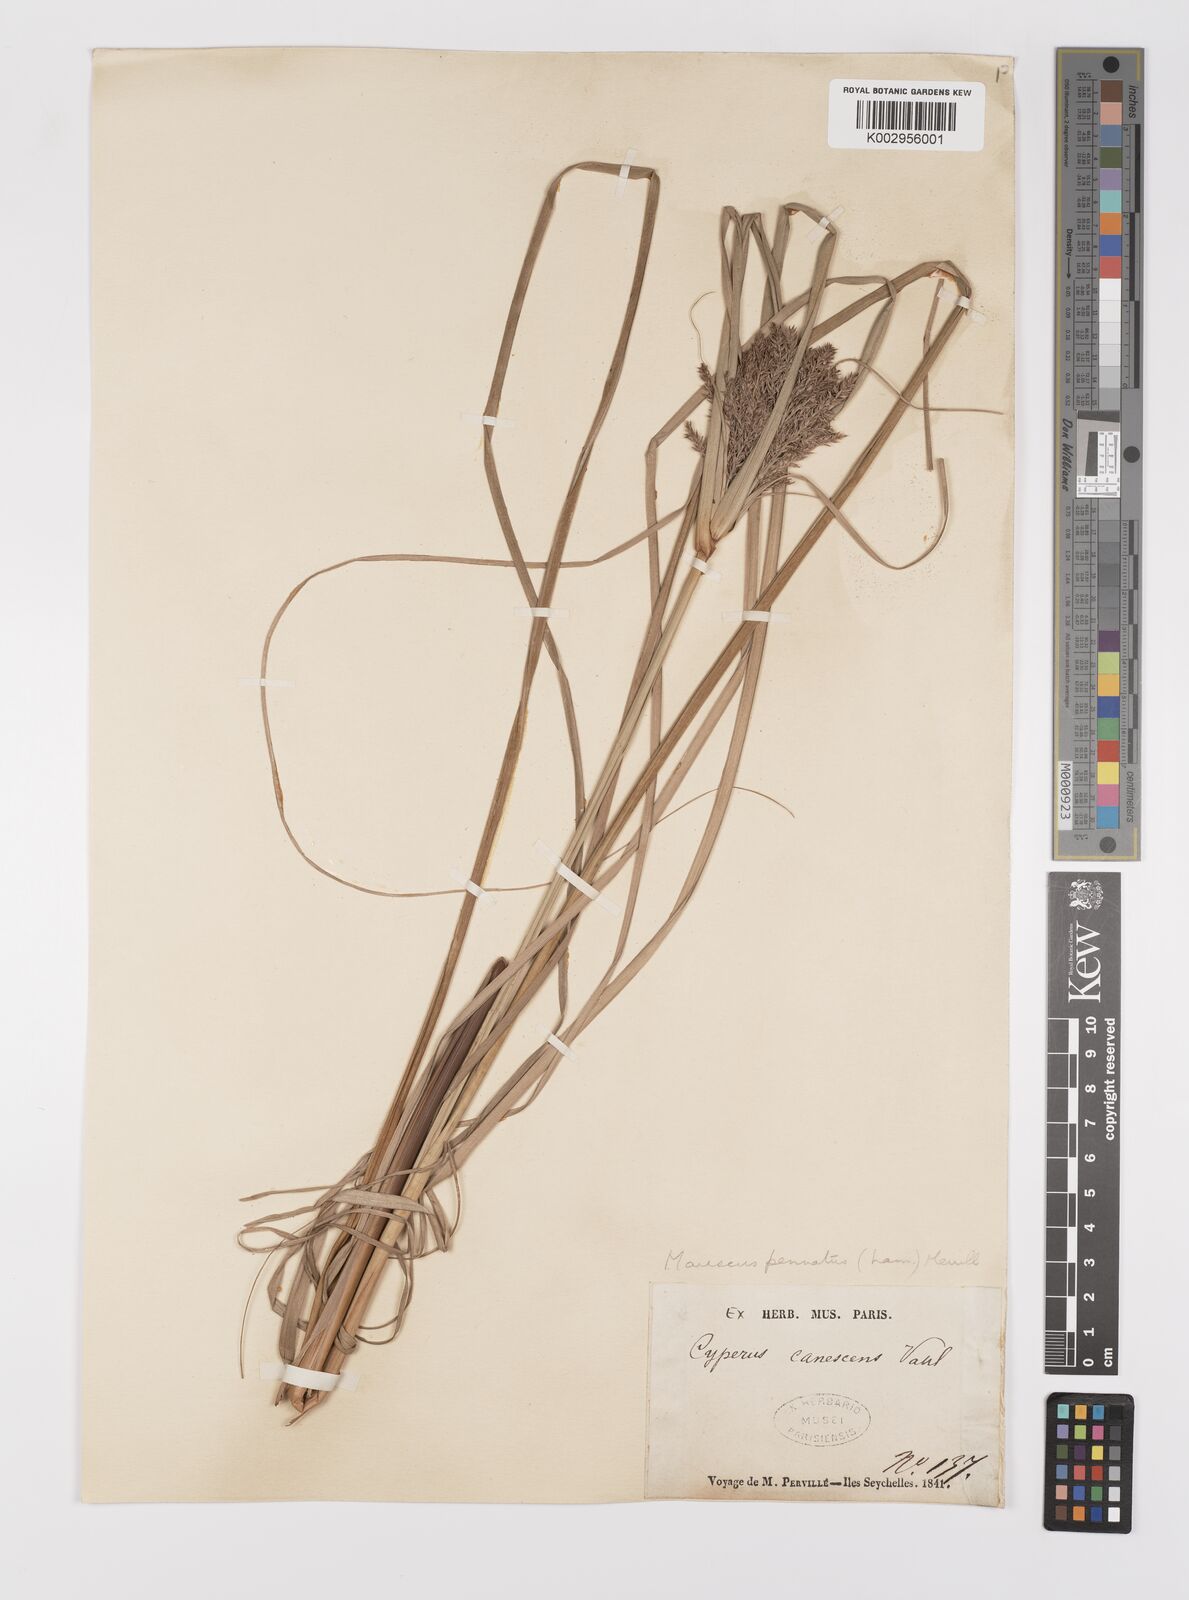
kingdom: Plantae
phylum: Tracheophyta
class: Liliopsida
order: Poales
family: Cyperaceae
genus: Cyperus
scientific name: Cyperus javanicus
